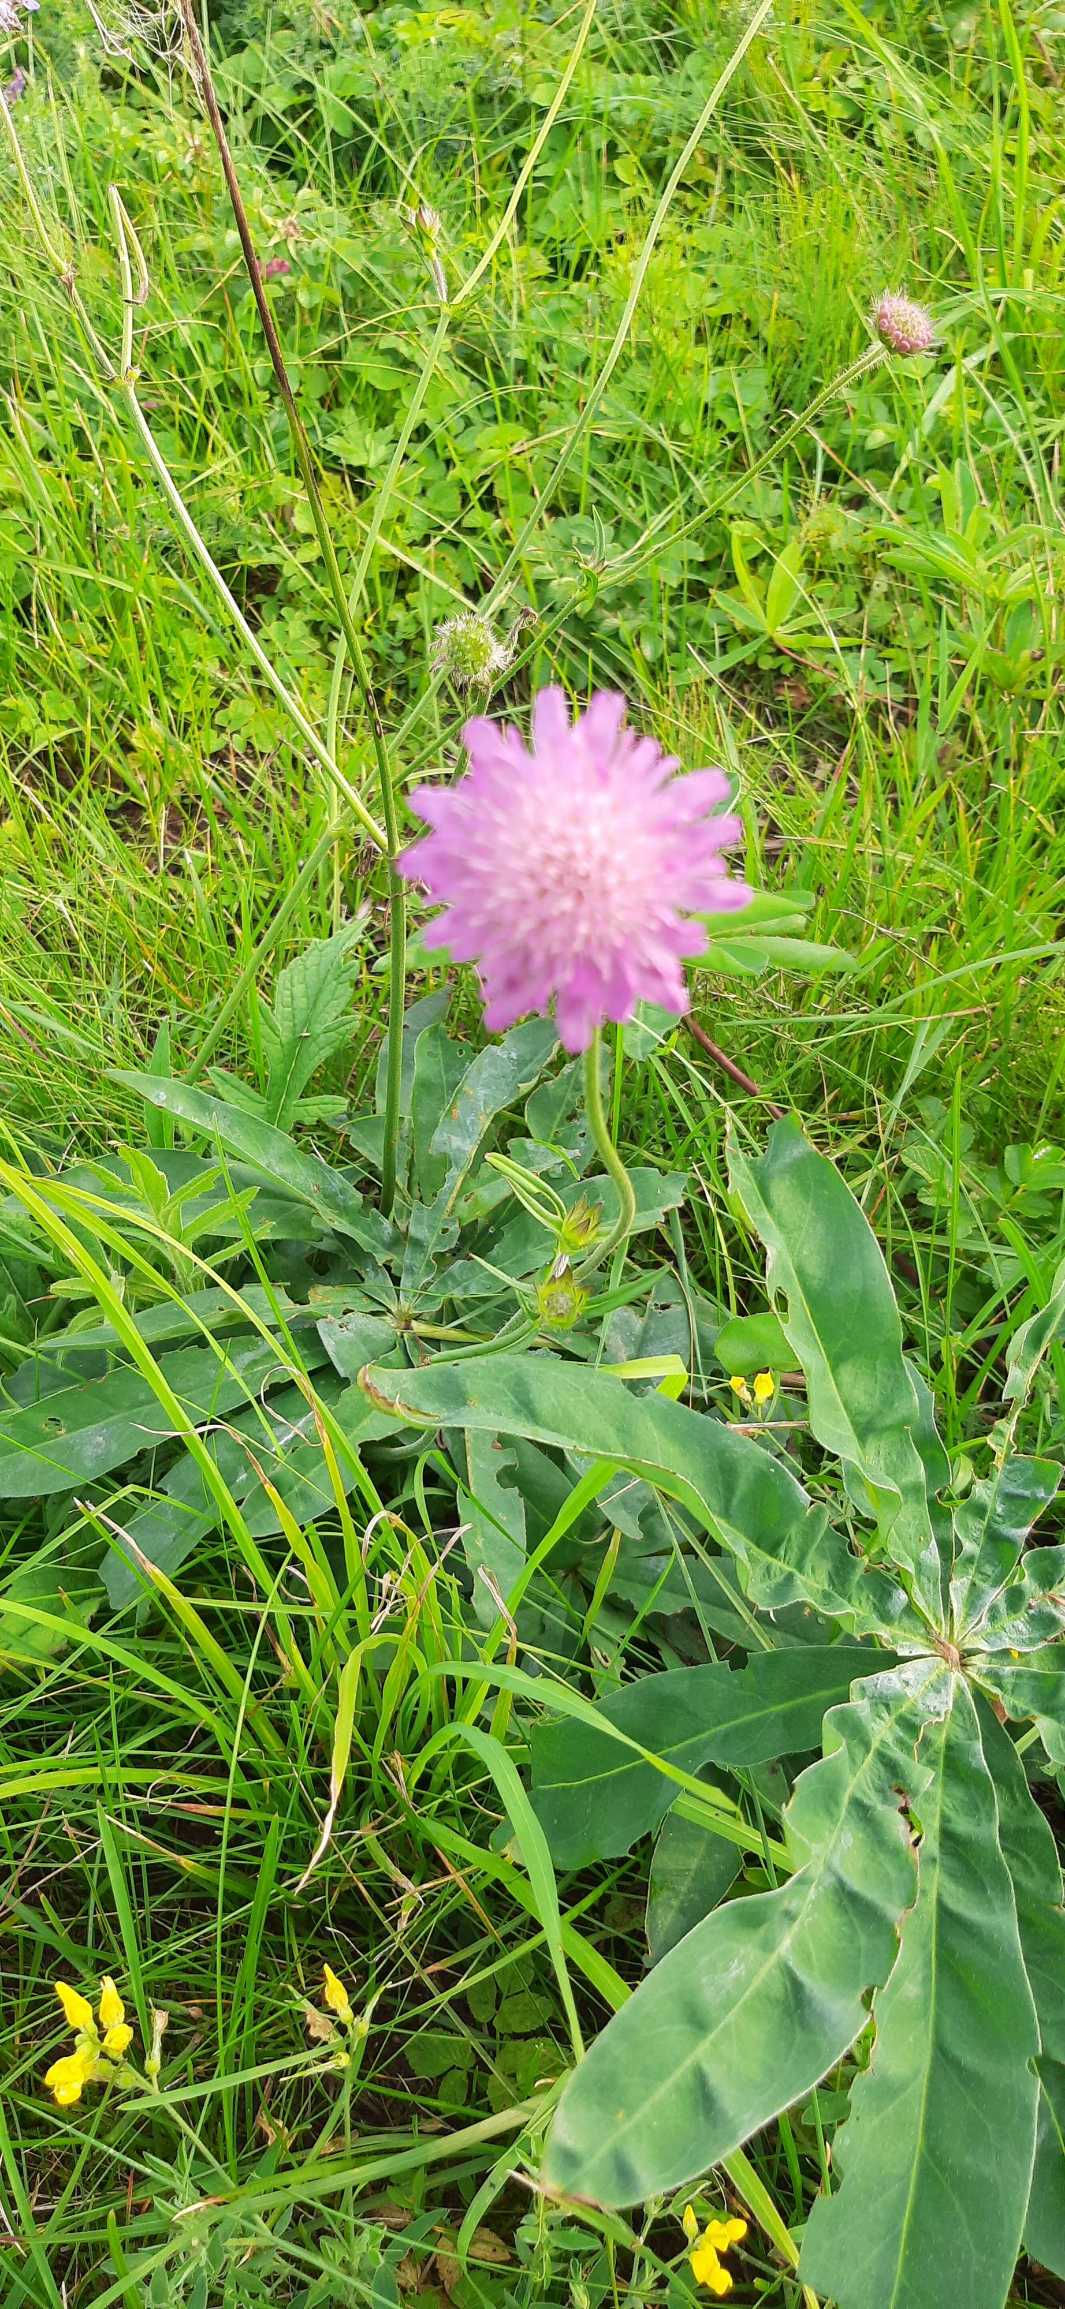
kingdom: Plantae
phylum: Tracheophyta
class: Magnoliopsida
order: Dipsacales
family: Caprifoliaceae
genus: Knautia
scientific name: Knautia arvensis
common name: Blåhat
